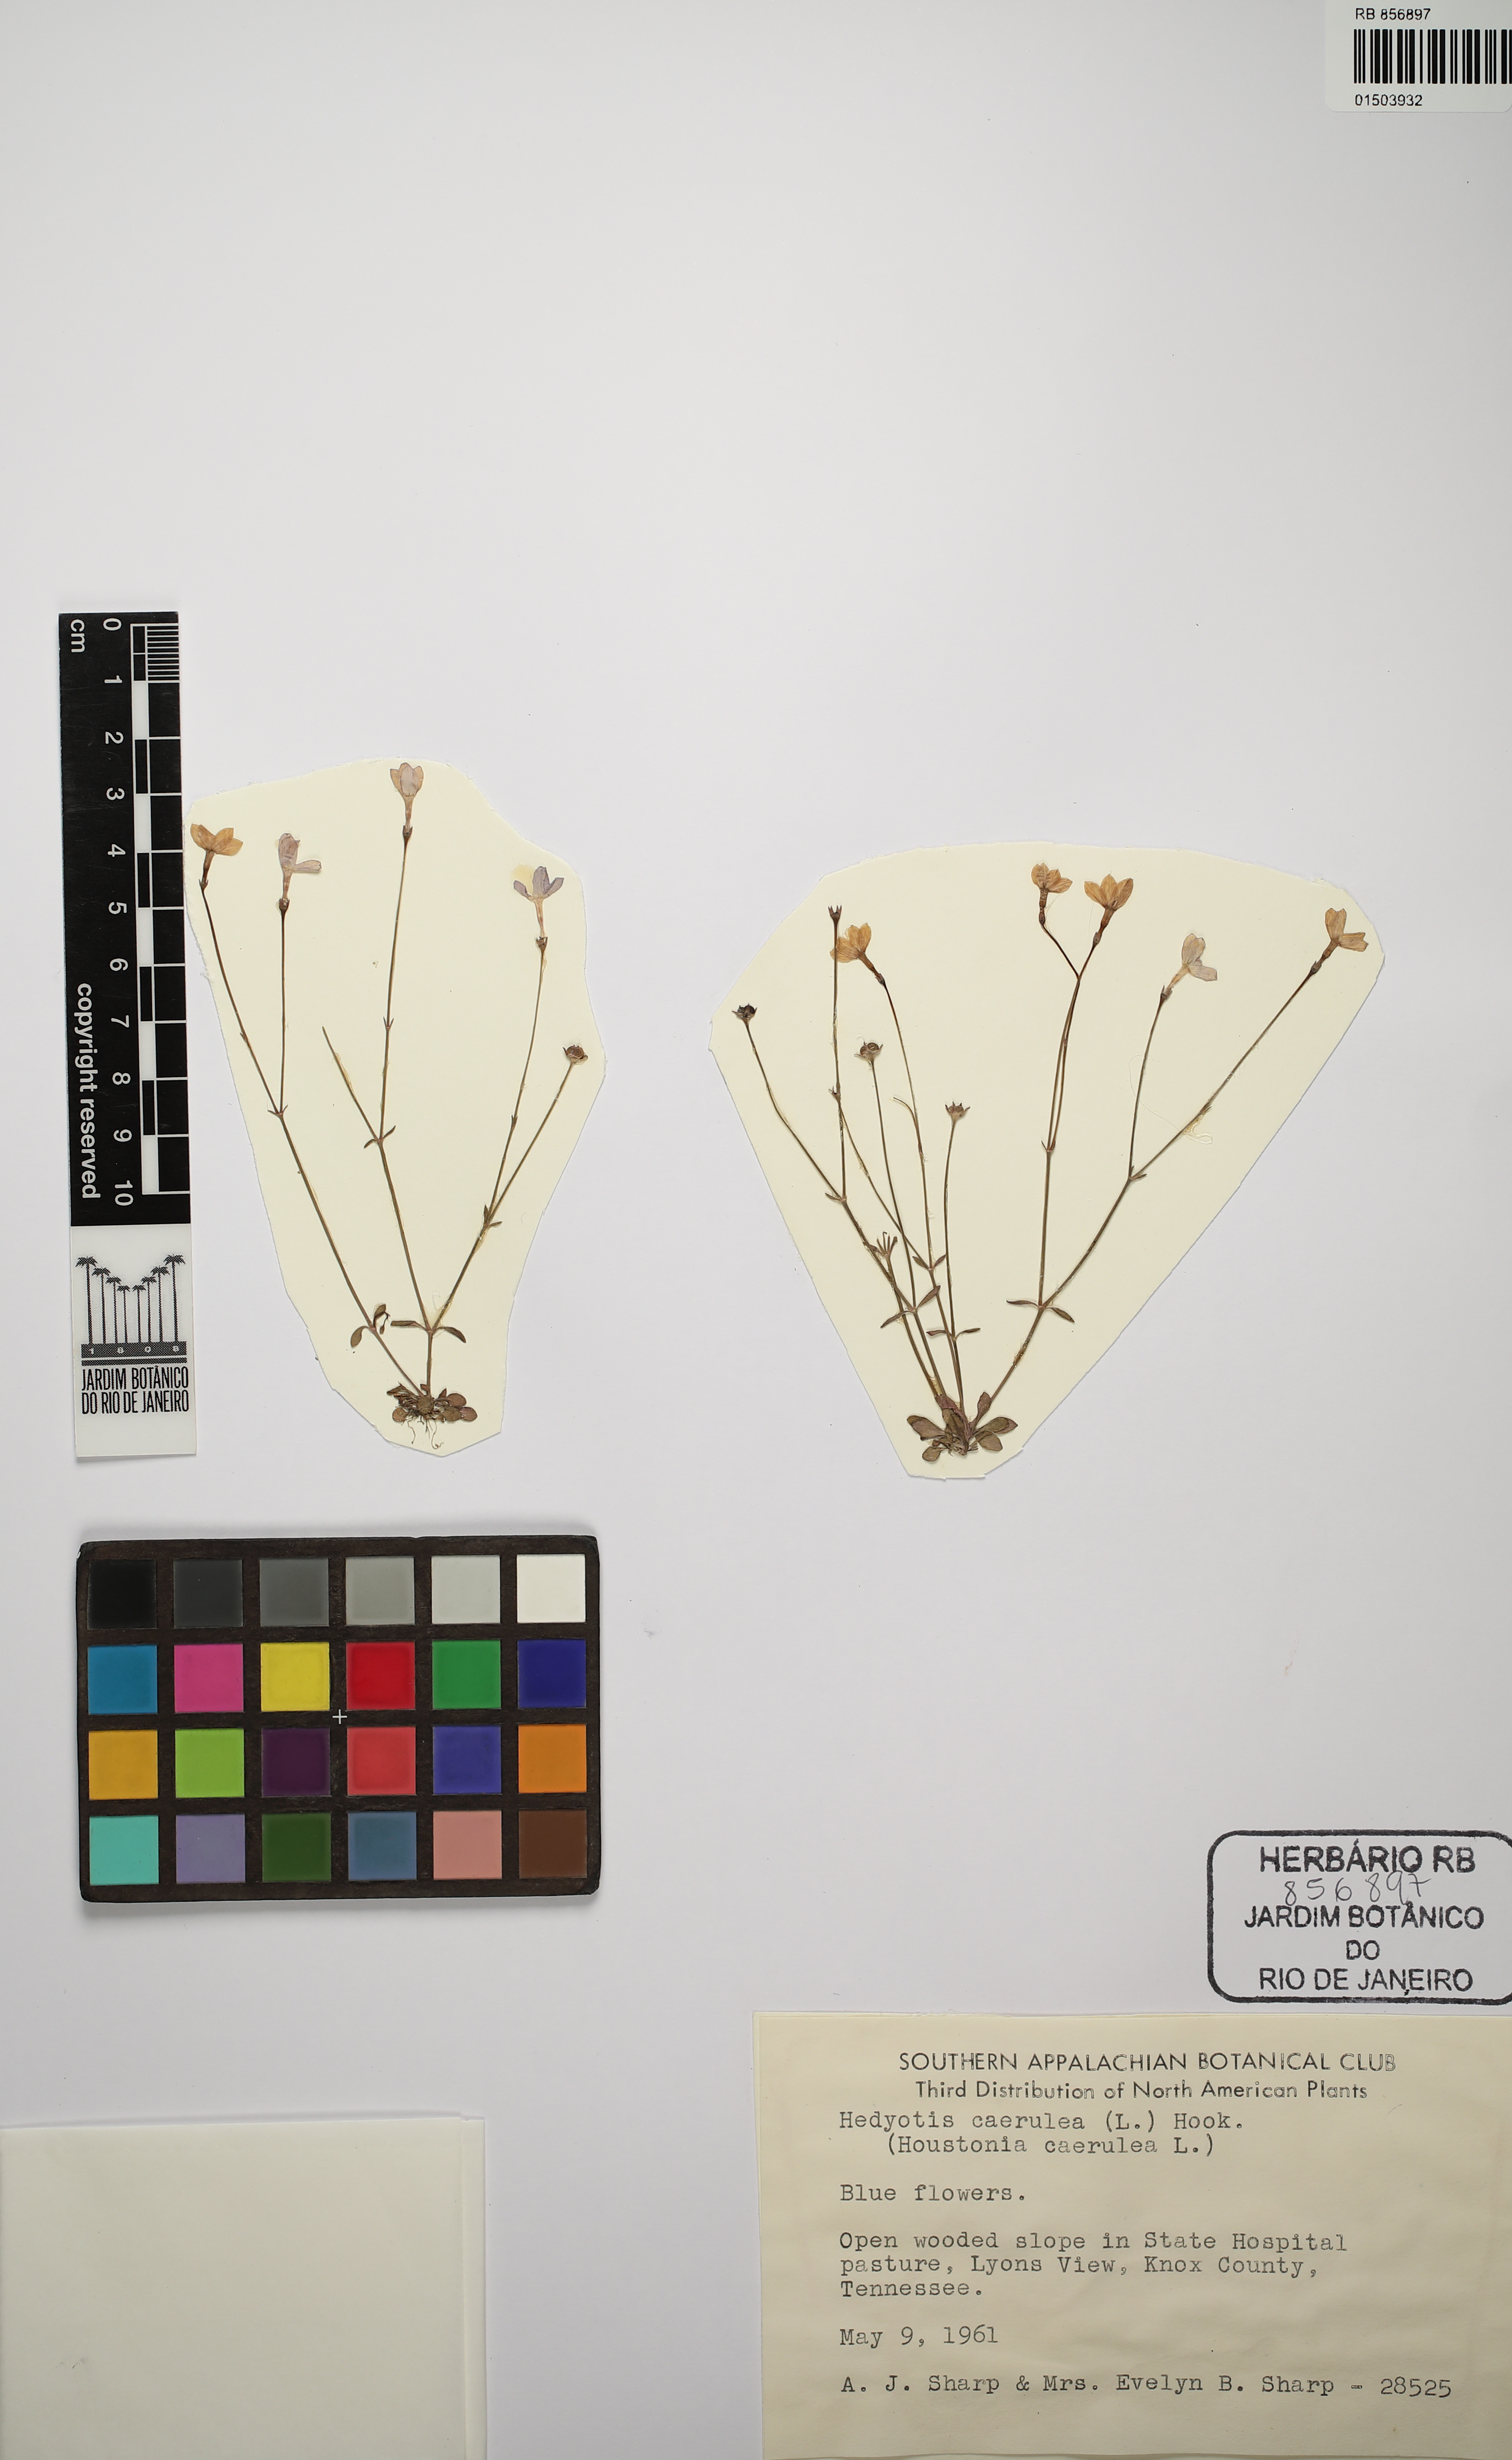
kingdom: Plantae
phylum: Tracheophyta
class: Magnoliopsida
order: Gentianales
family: Rubiaceae
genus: Houstonia
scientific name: Houstonia caerulea
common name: Bluets
